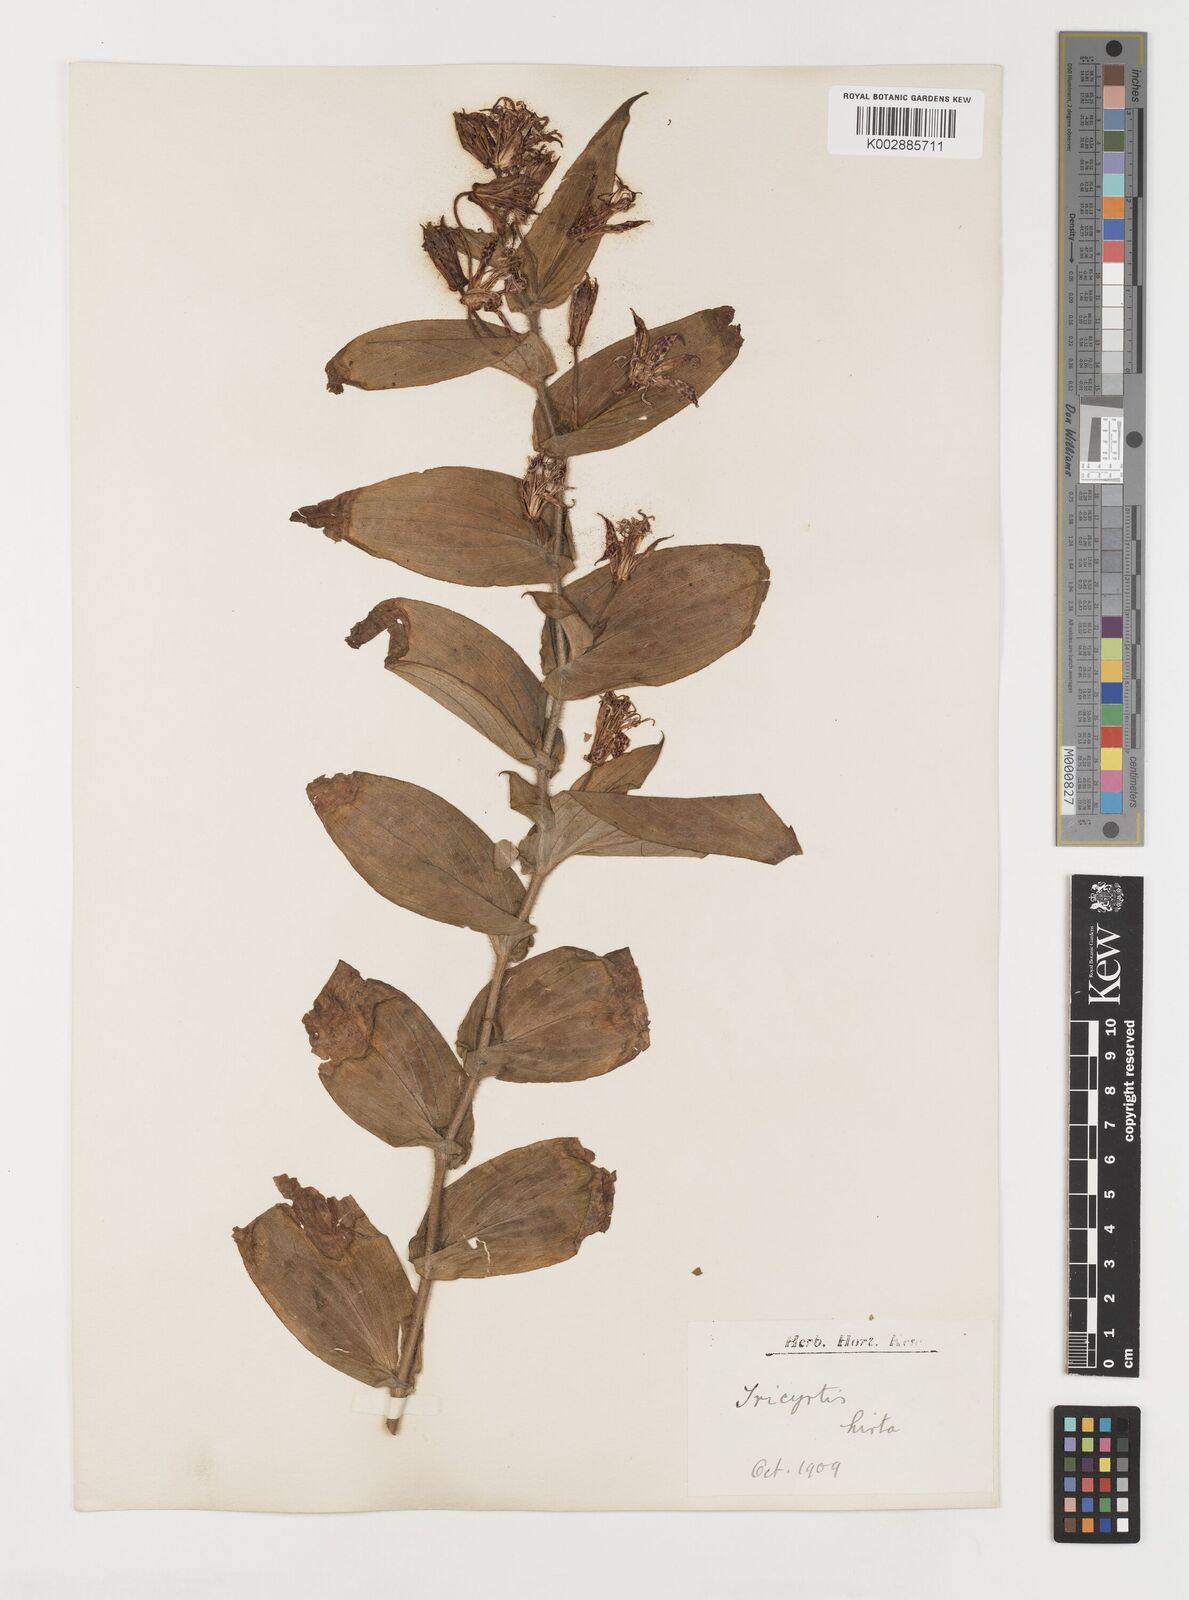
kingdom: Plantae
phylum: Tracheophyta
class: Liliopsida
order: Liliales
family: Liliaceae
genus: Tricyrtis
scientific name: Tricyrtis hirta
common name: Toadlily
